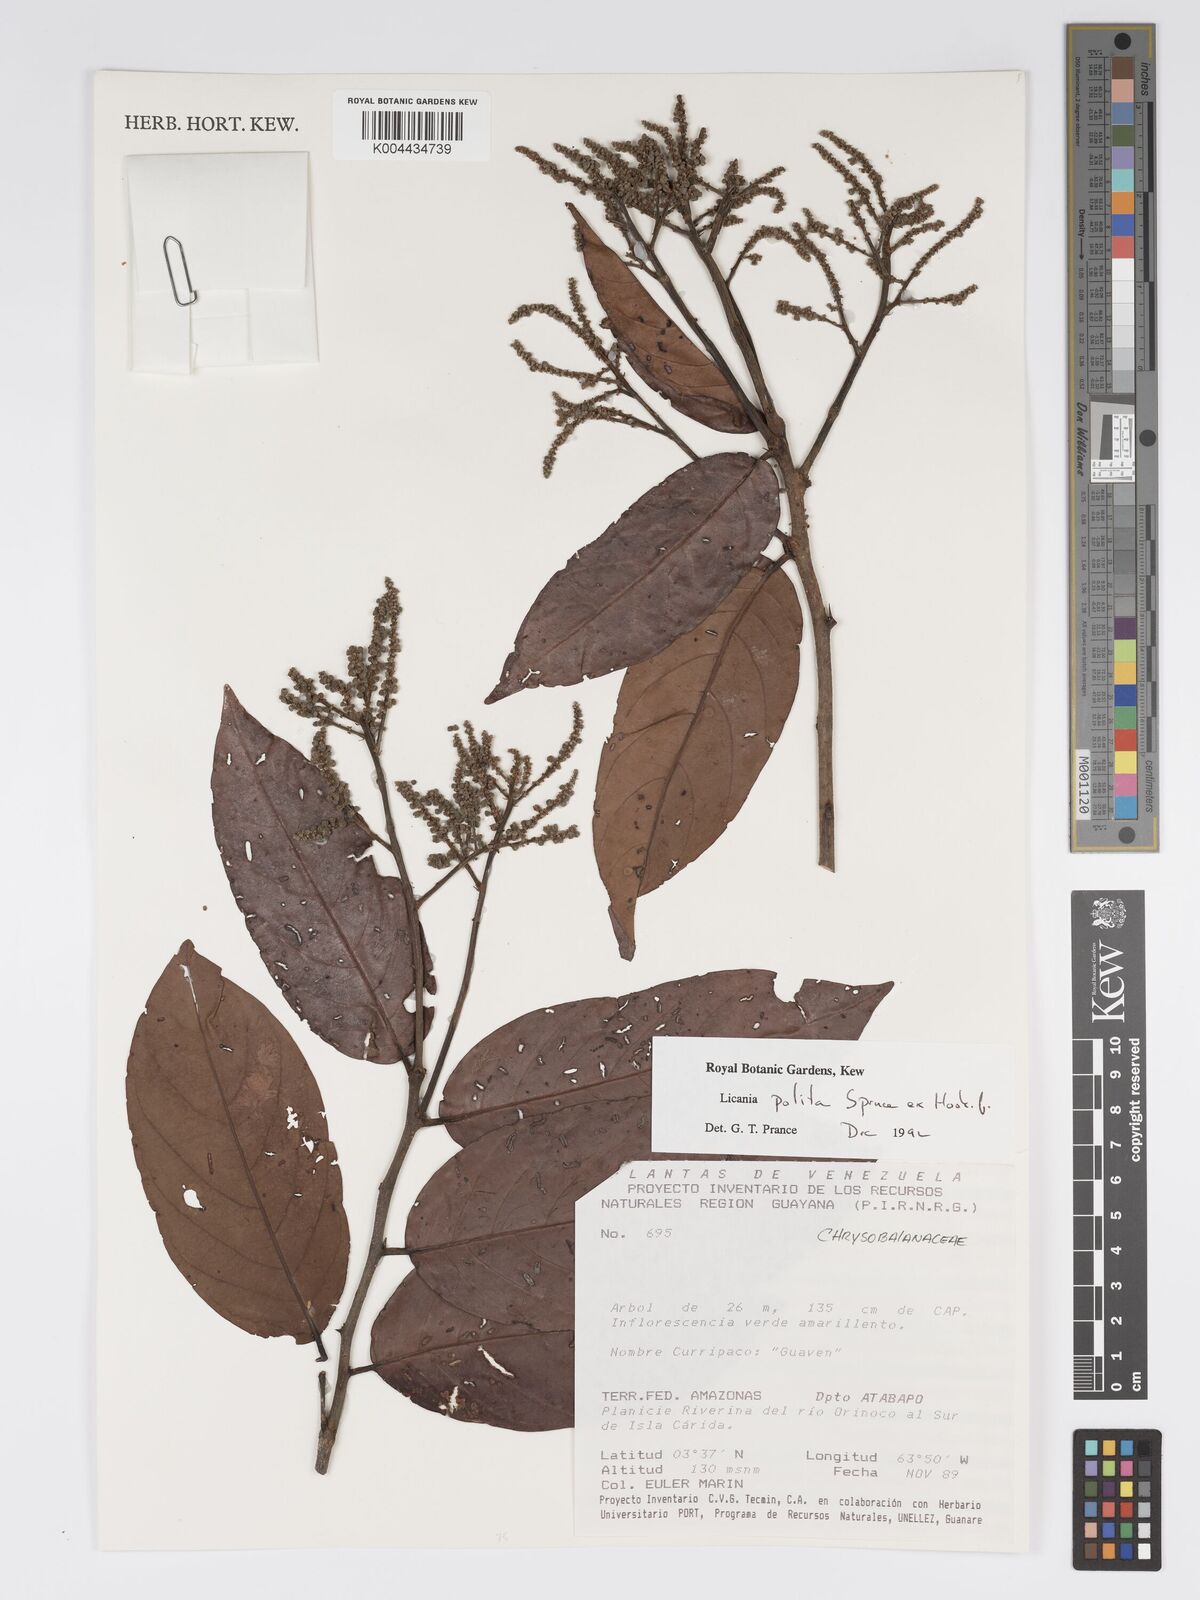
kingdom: Plantae
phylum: Tracheophyta
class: Magnoliopsida
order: Malpighiales
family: Chrysobalanaceae
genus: Licania
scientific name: Licania polita
